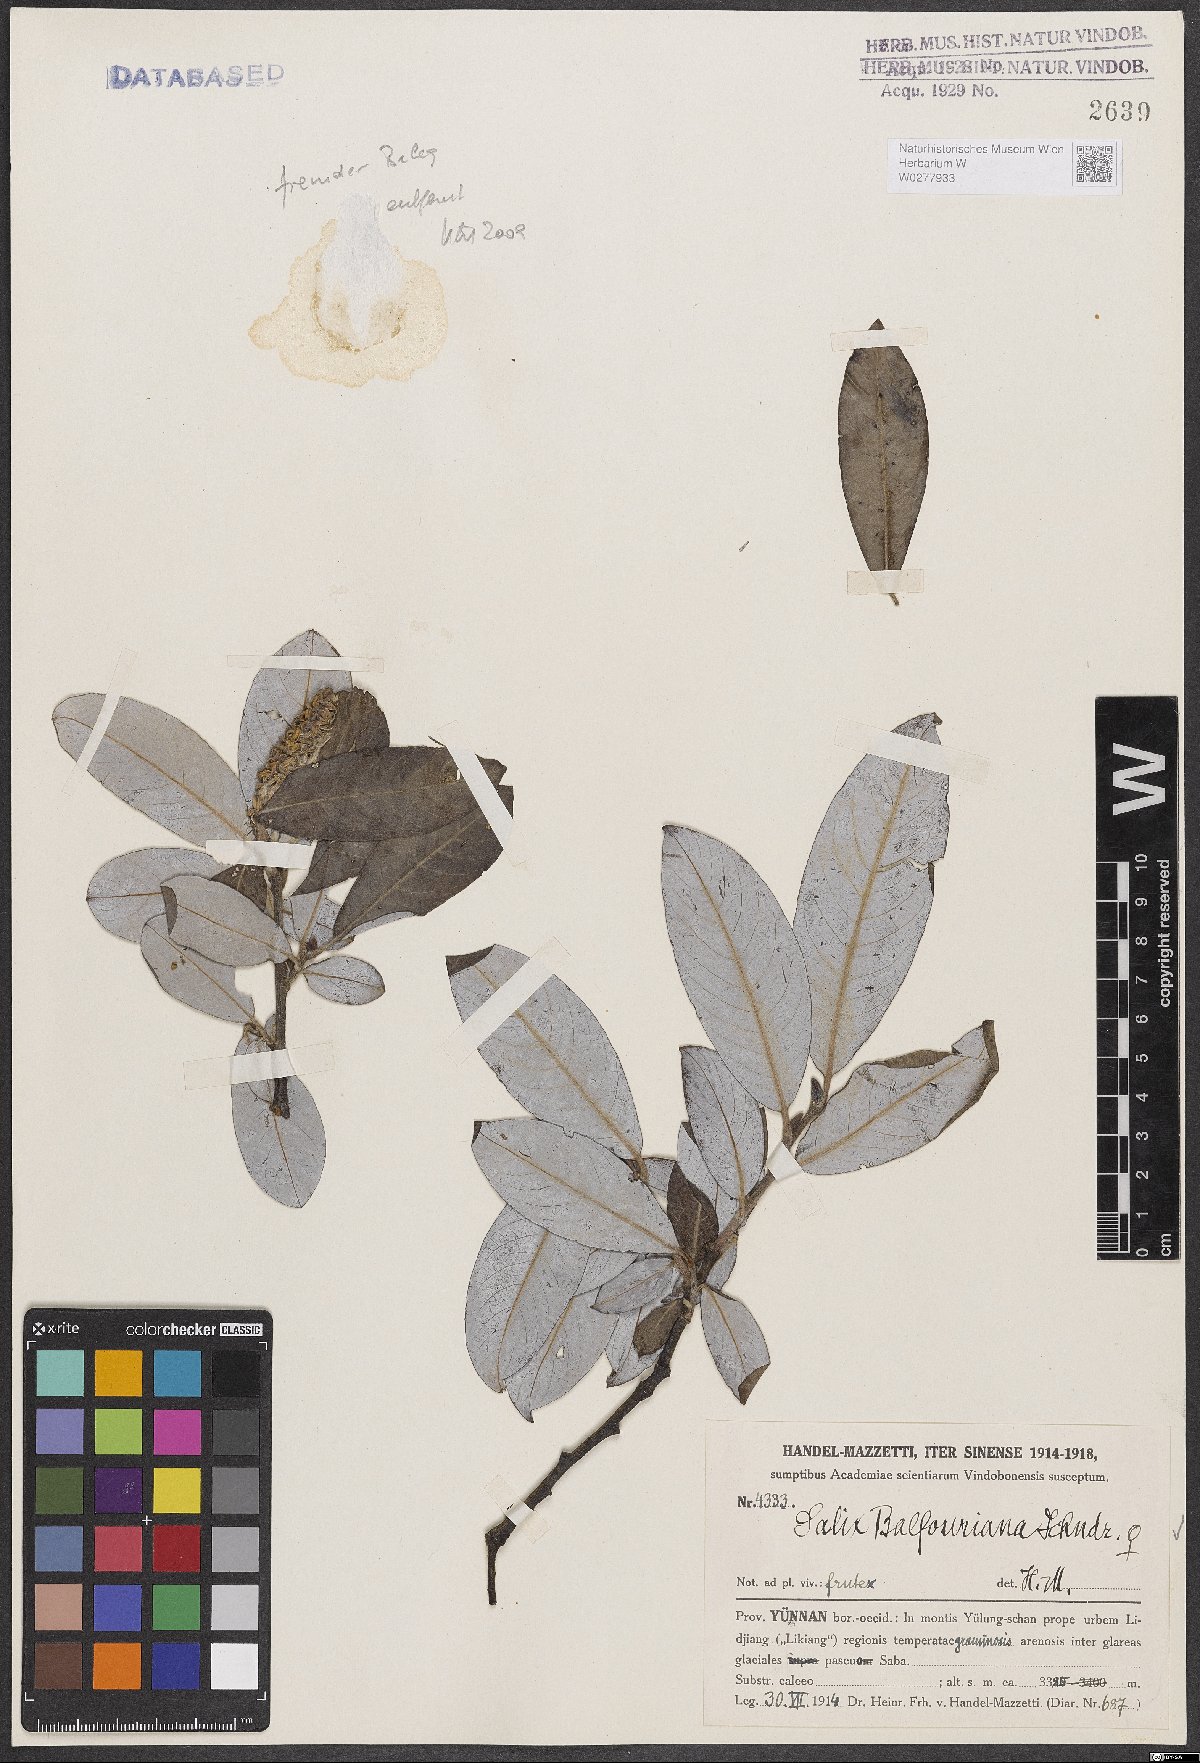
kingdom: Plantae
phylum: Tracheophyta
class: Magnoliopsida
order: Malpighiales
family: Salicaceae
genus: Salix
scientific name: Salix balfouriana
